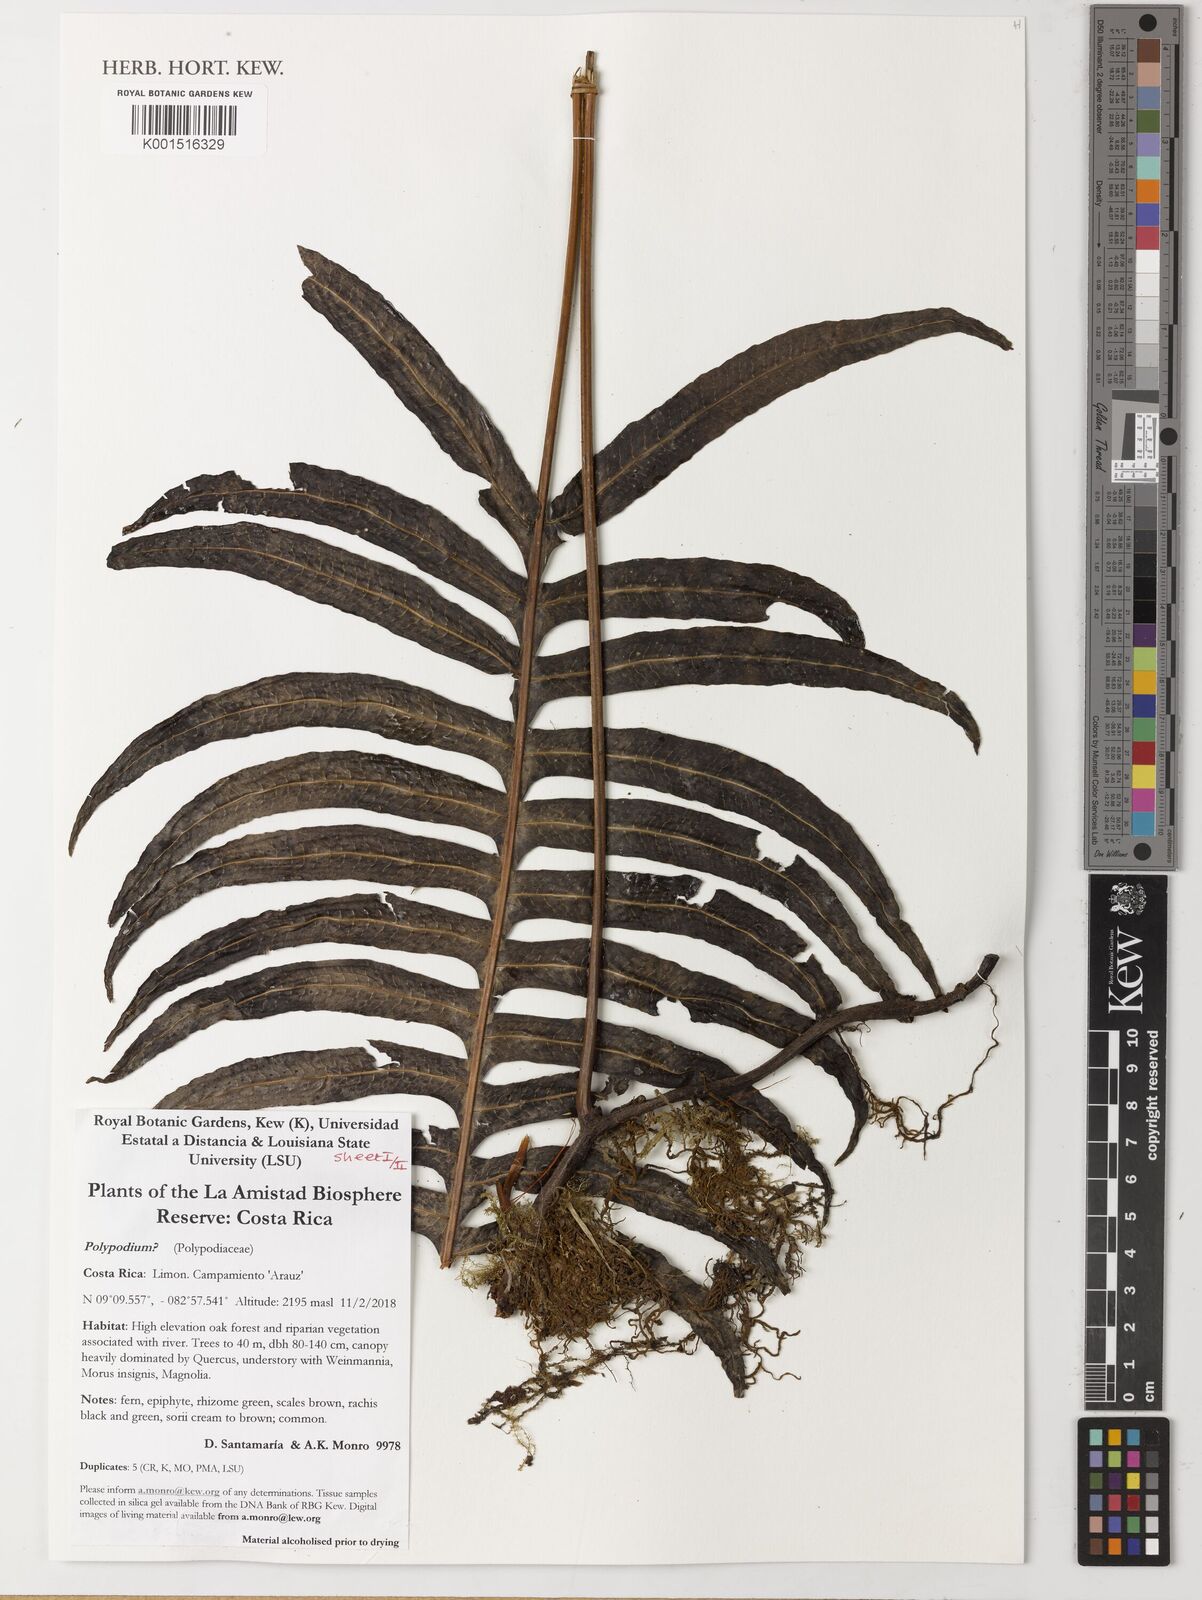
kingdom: Plantae
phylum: Tracheophyta
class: Polypodiopsida
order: Polypodiales
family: Polypodiaceae
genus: Polypodium
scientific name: Polypodium
